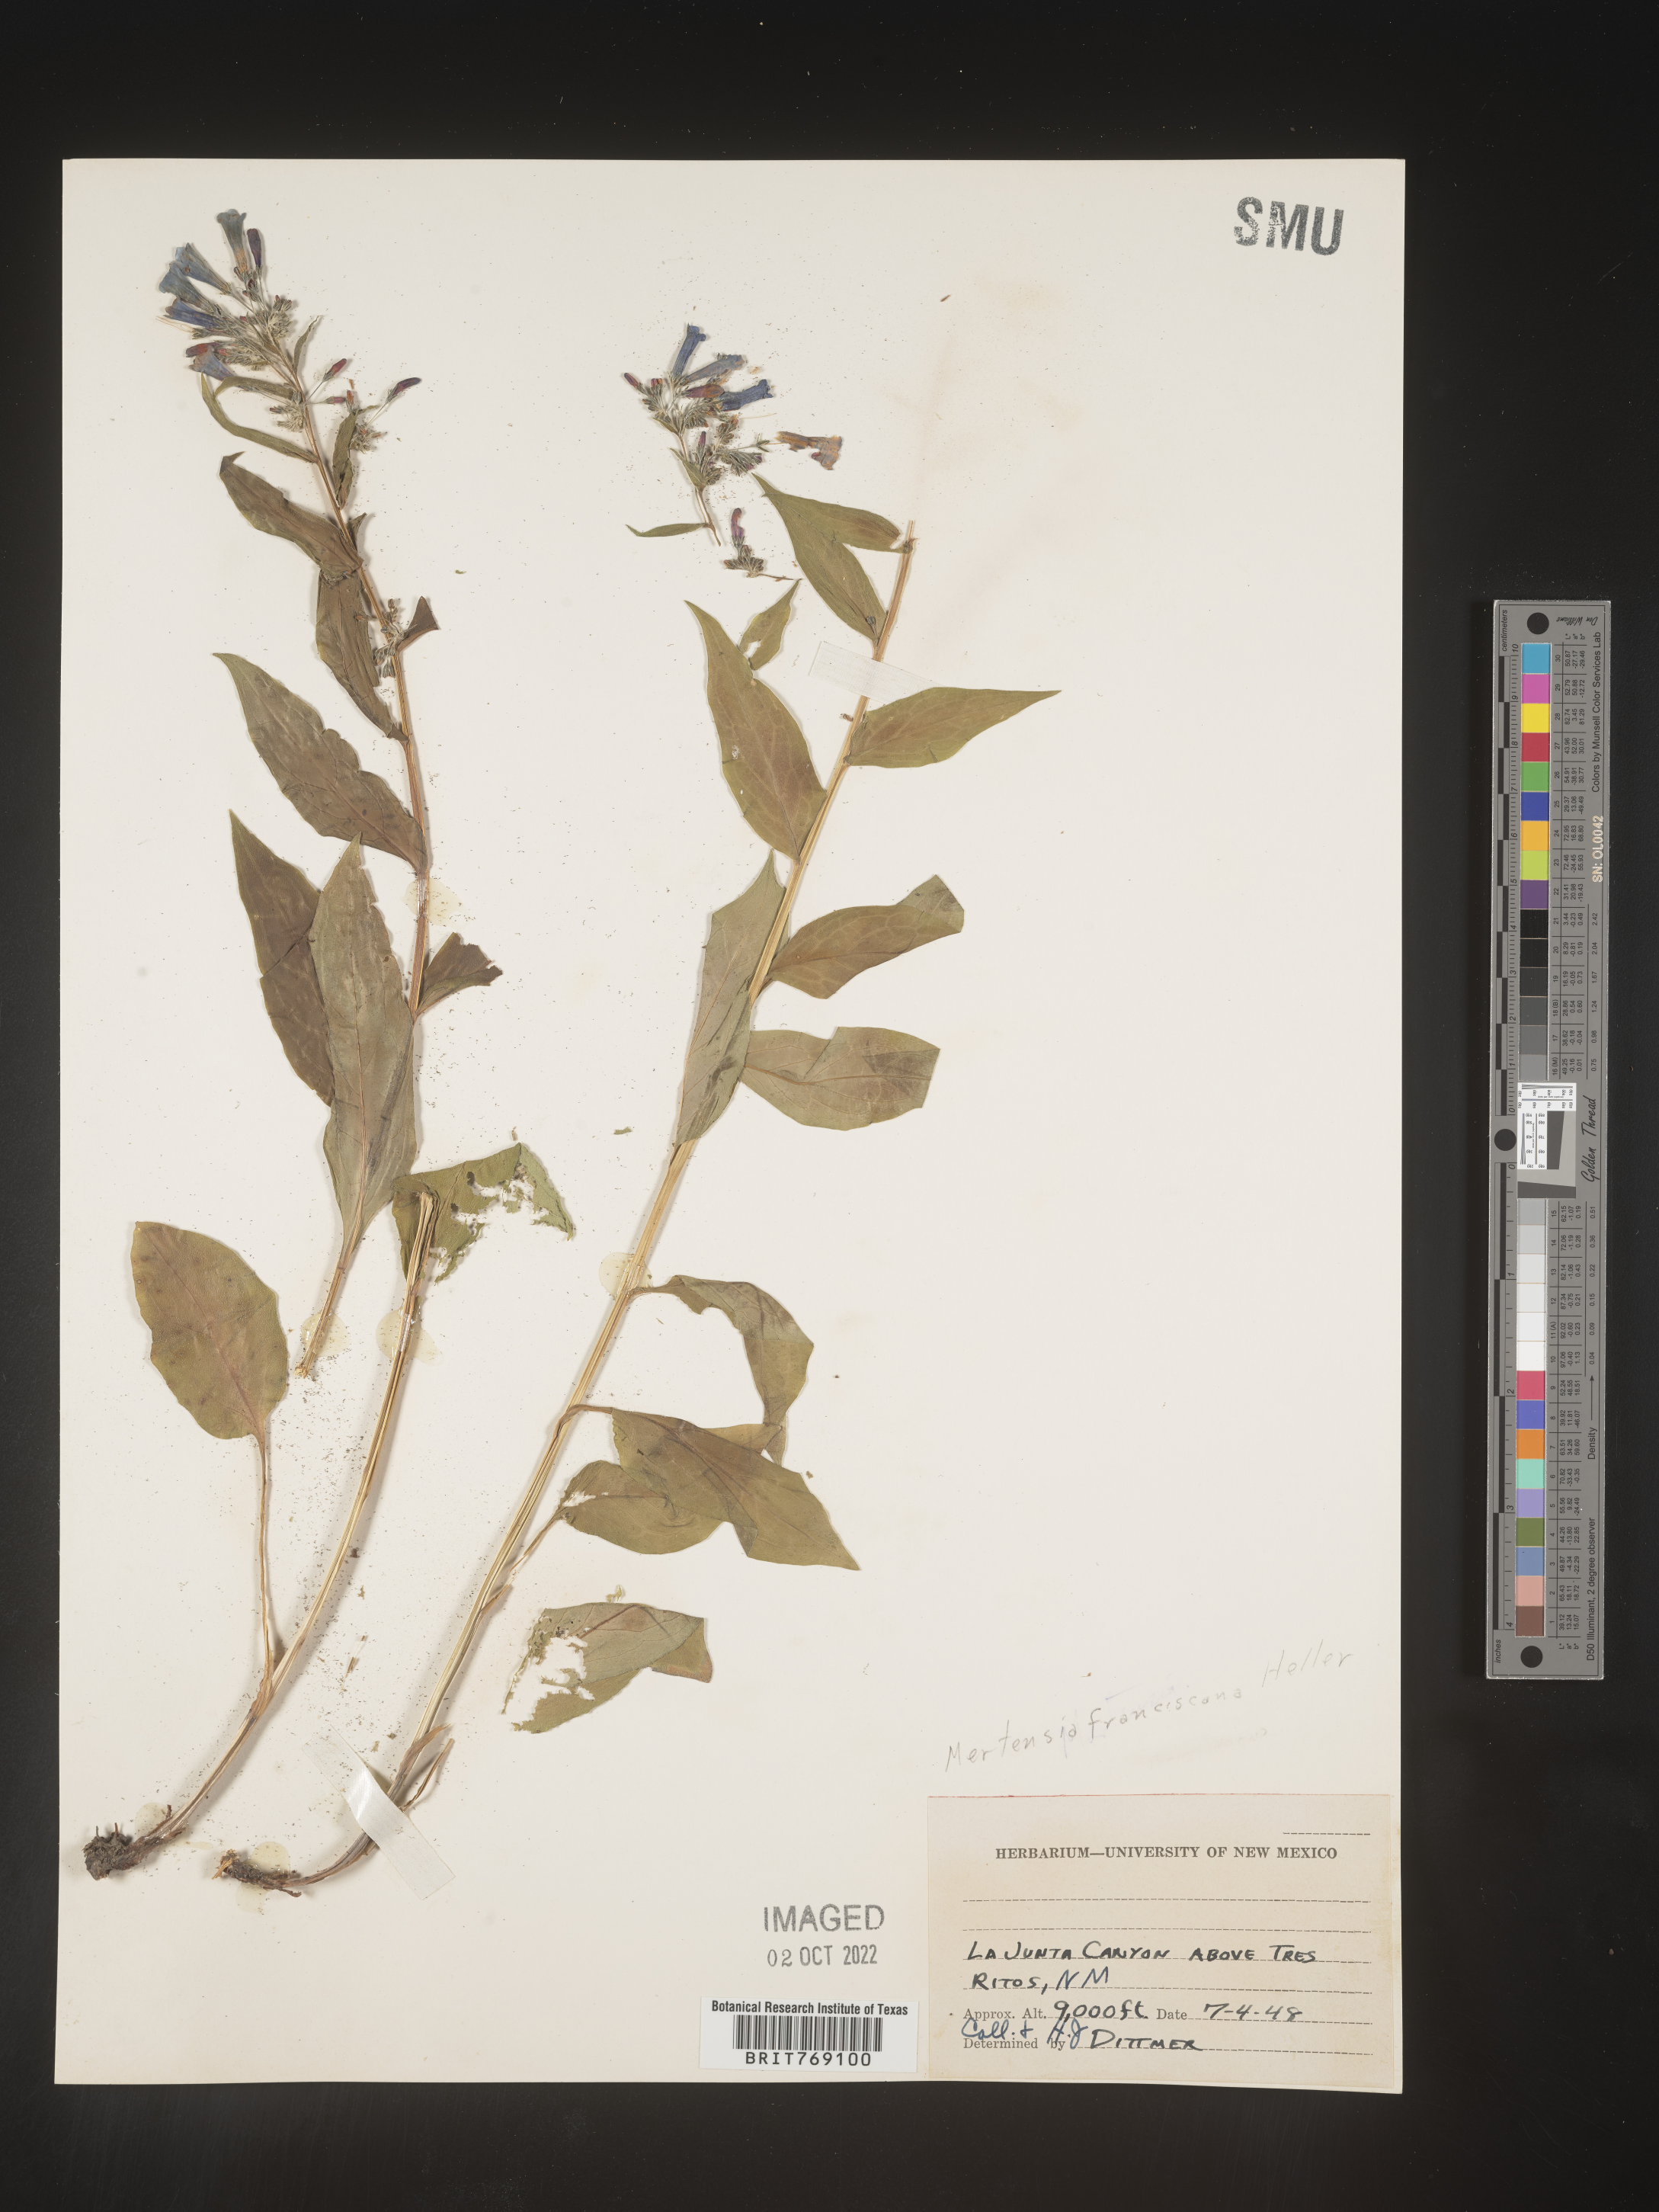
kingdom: Plantae
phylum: Tracheophyta
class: Magnoliopsida
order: Boraginales
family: Boraginaceae
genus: Mertensia
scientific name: Mertensia
